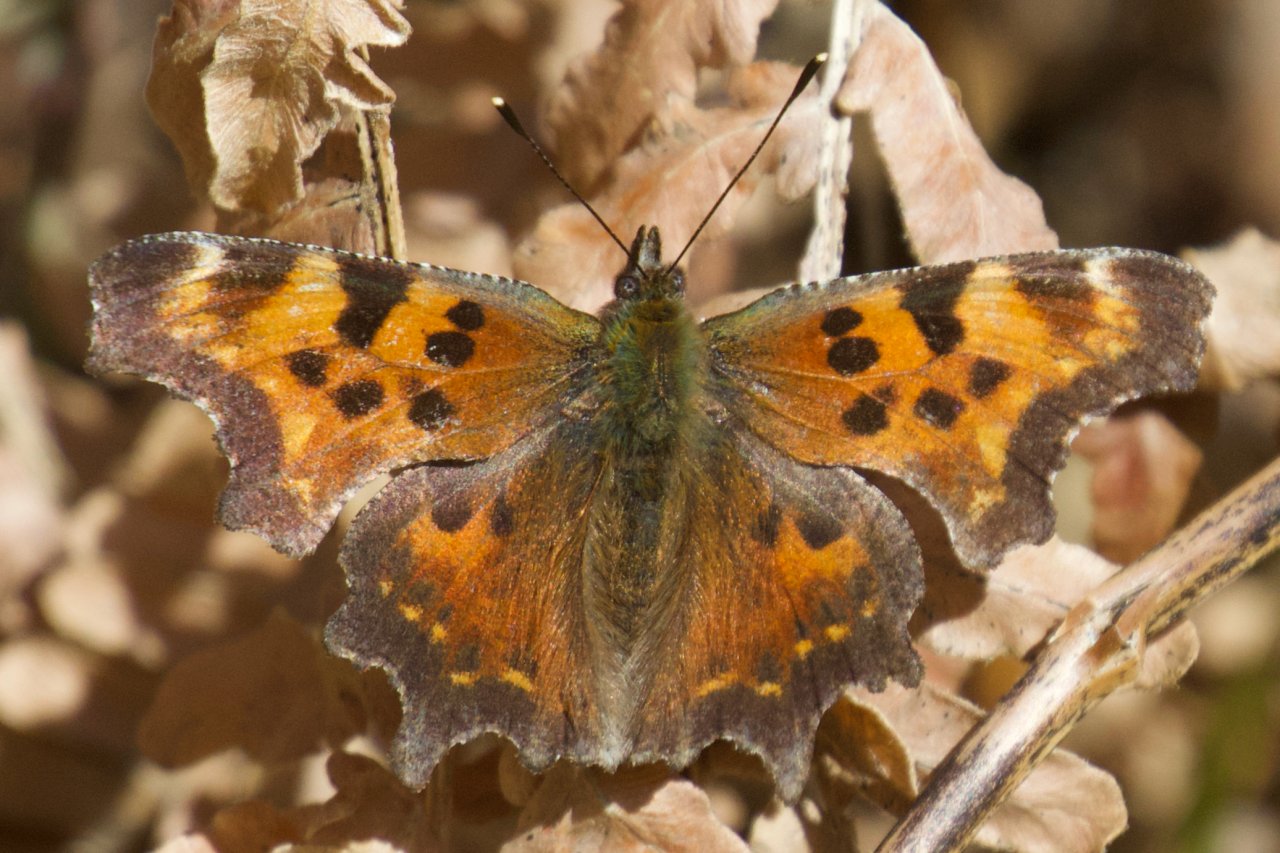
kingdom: Animalia
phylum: Arthropoda
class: Insecta
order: Lepidoptera
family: Nymphalidae
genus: Polygonia
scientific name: Polygonia faunus
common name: Green Comma
